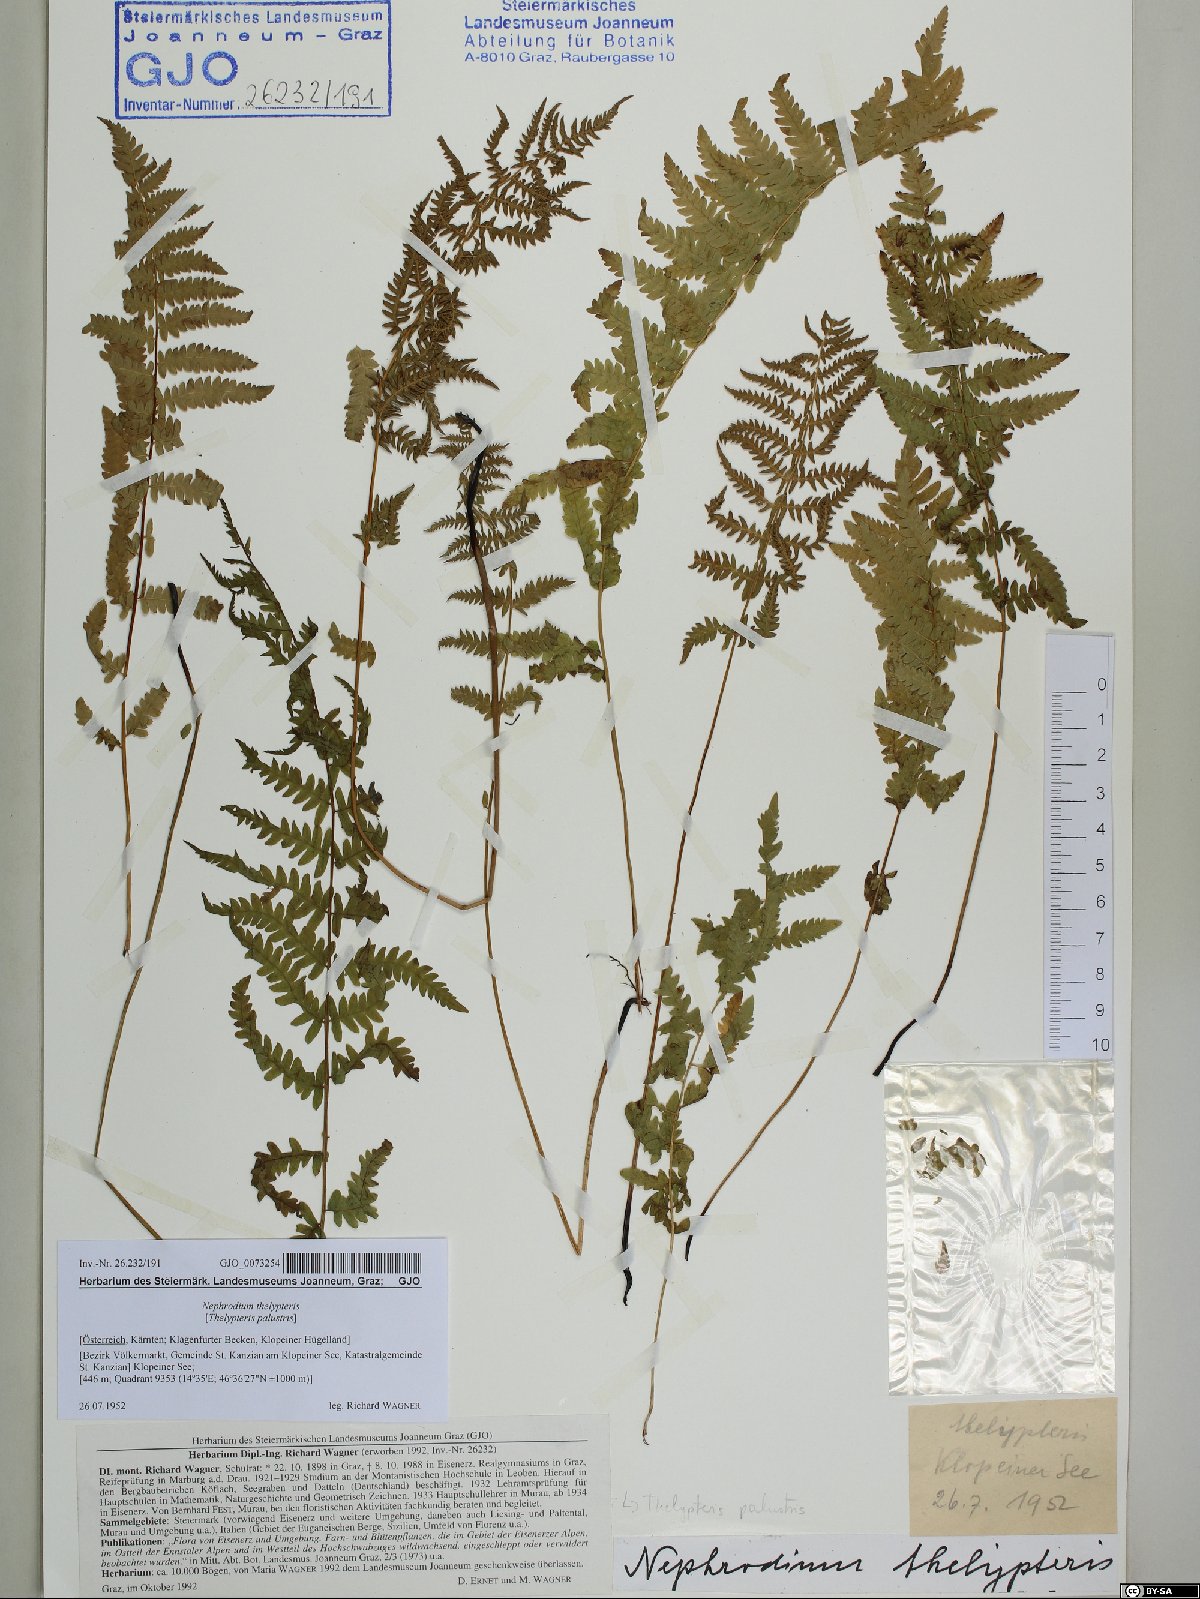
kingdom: Plantae
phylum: Tracheophyta
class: Polypodiopsida
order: Polypodiales
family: Thelypteridaceae
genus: Thelypteris
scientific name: Thelypteris palustris
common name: Marsh fern
